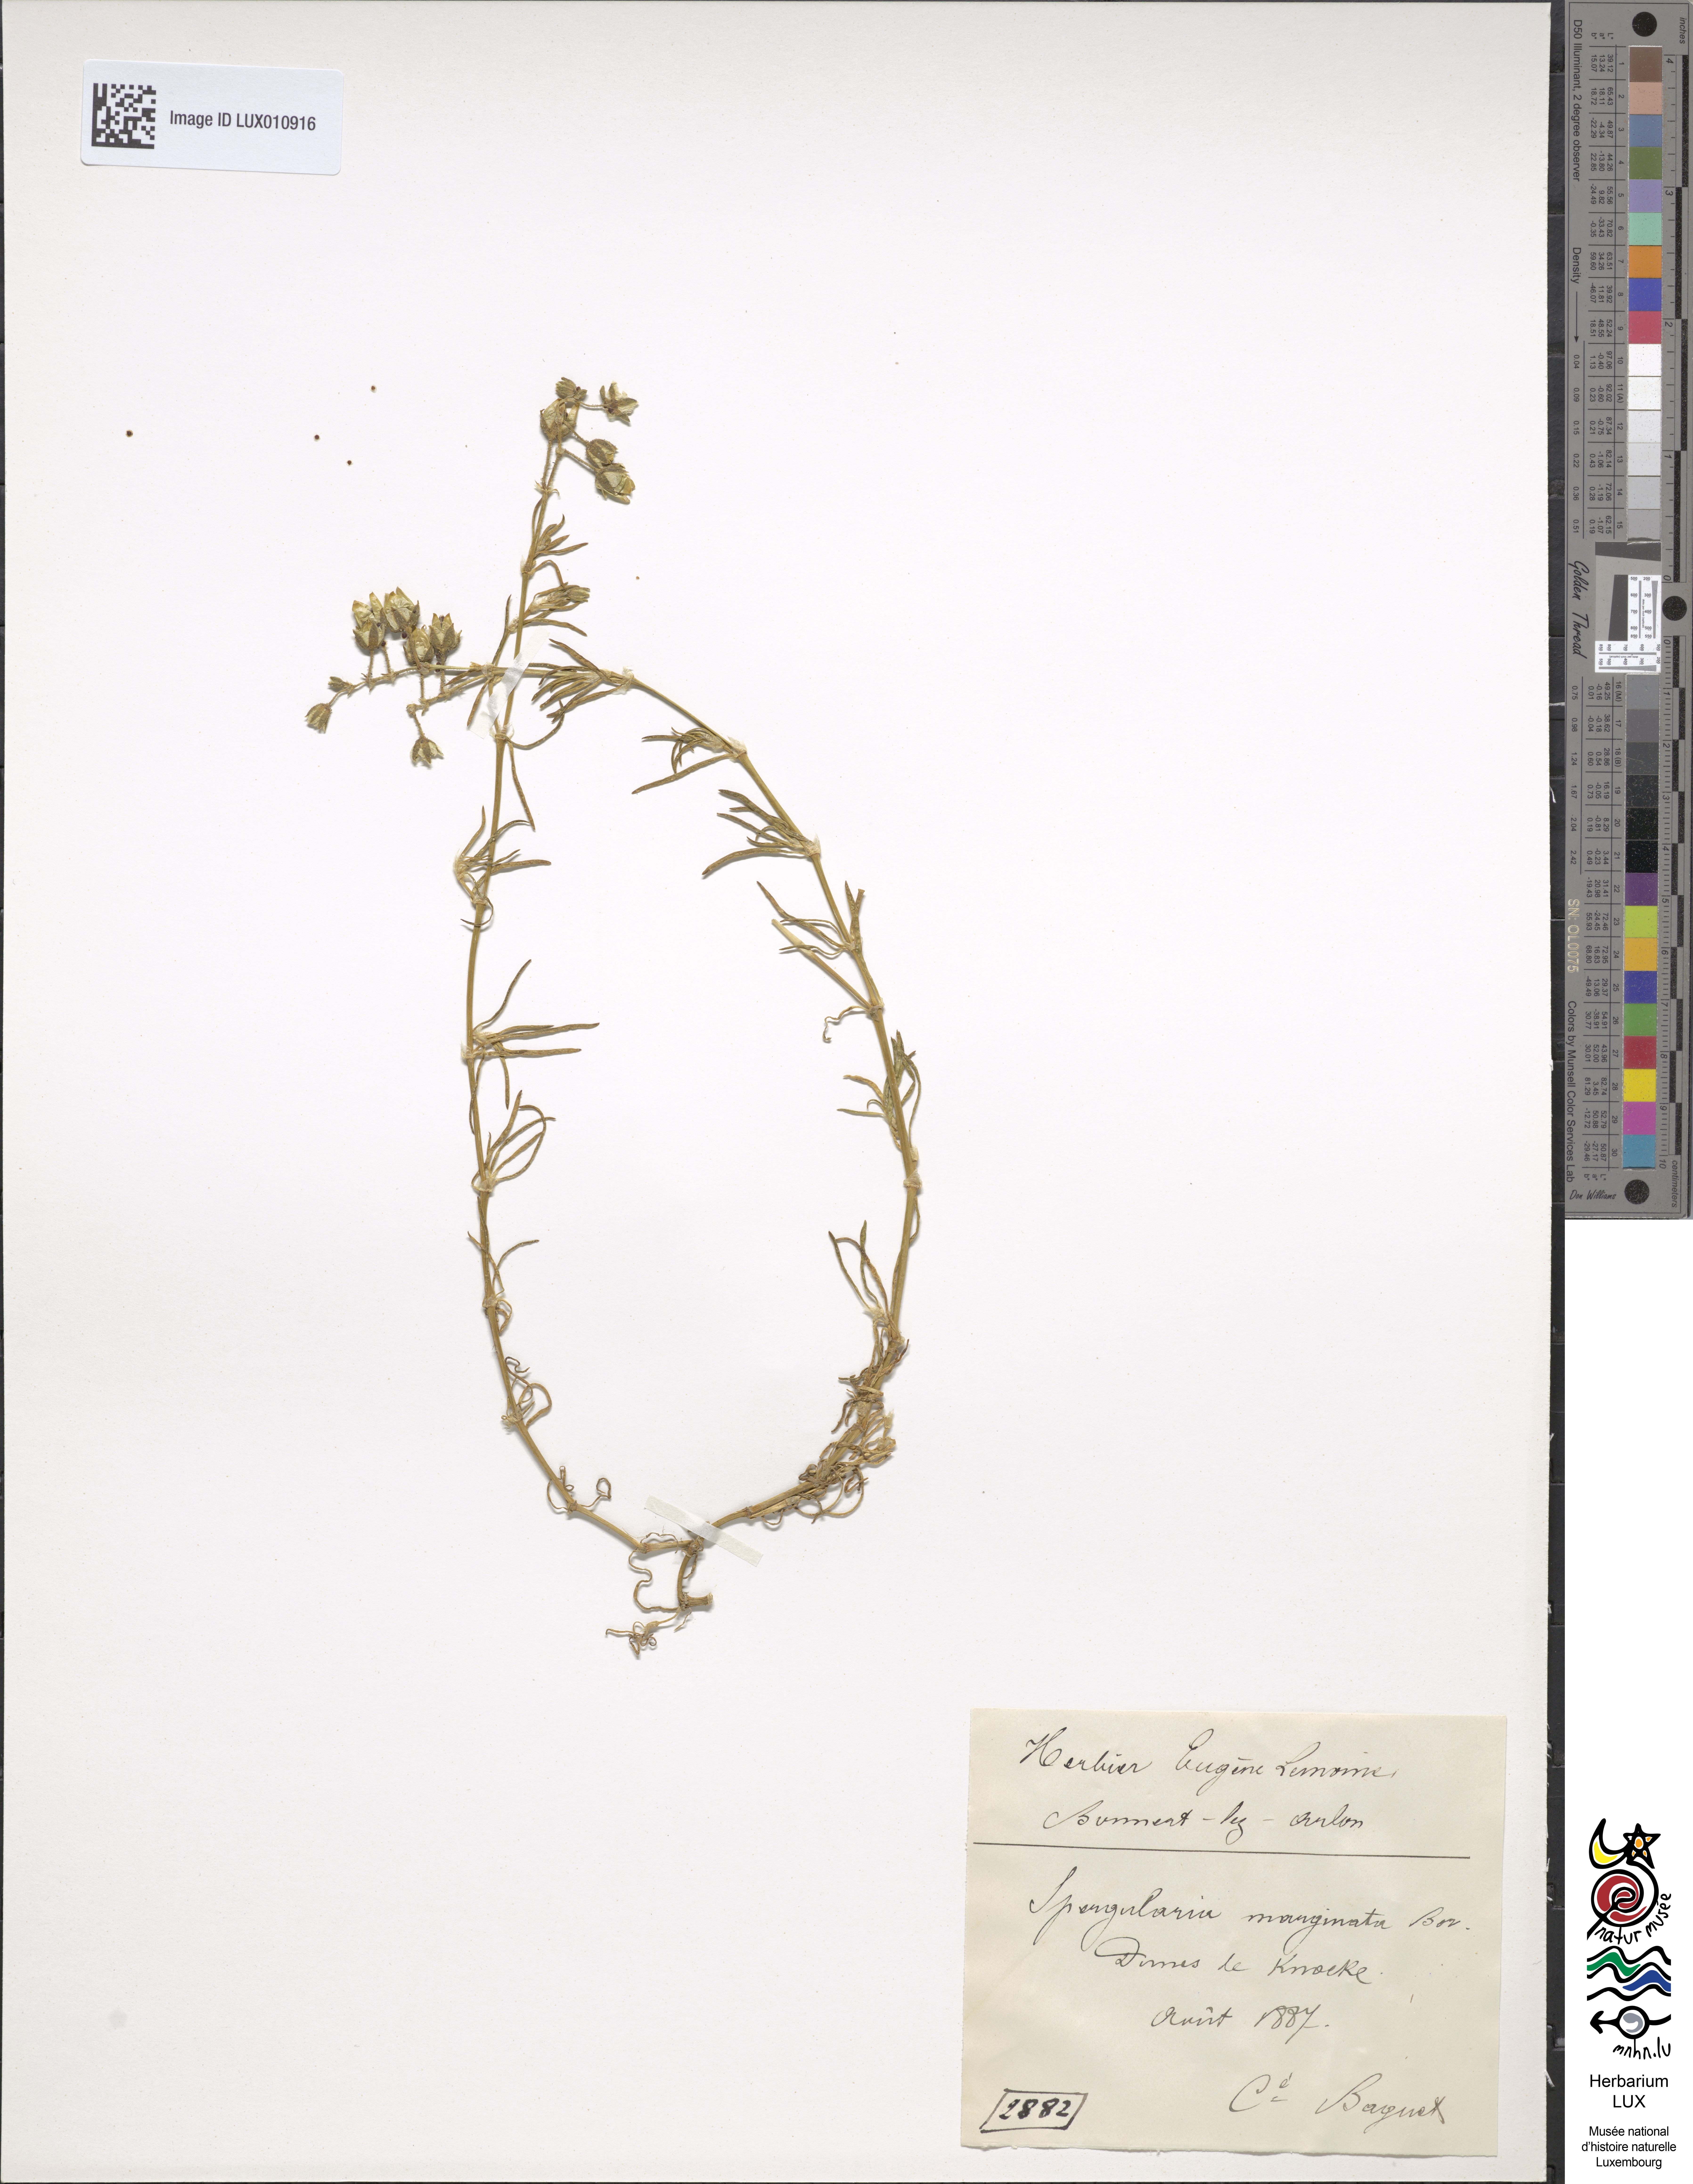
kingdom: Plantae
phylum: Tracheophyta
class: Magnoliopsida
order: Caryophyllales
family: Caryophyllaceae
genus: Spergularia
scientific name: Spergularia media
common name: Greater sea-spurrey
